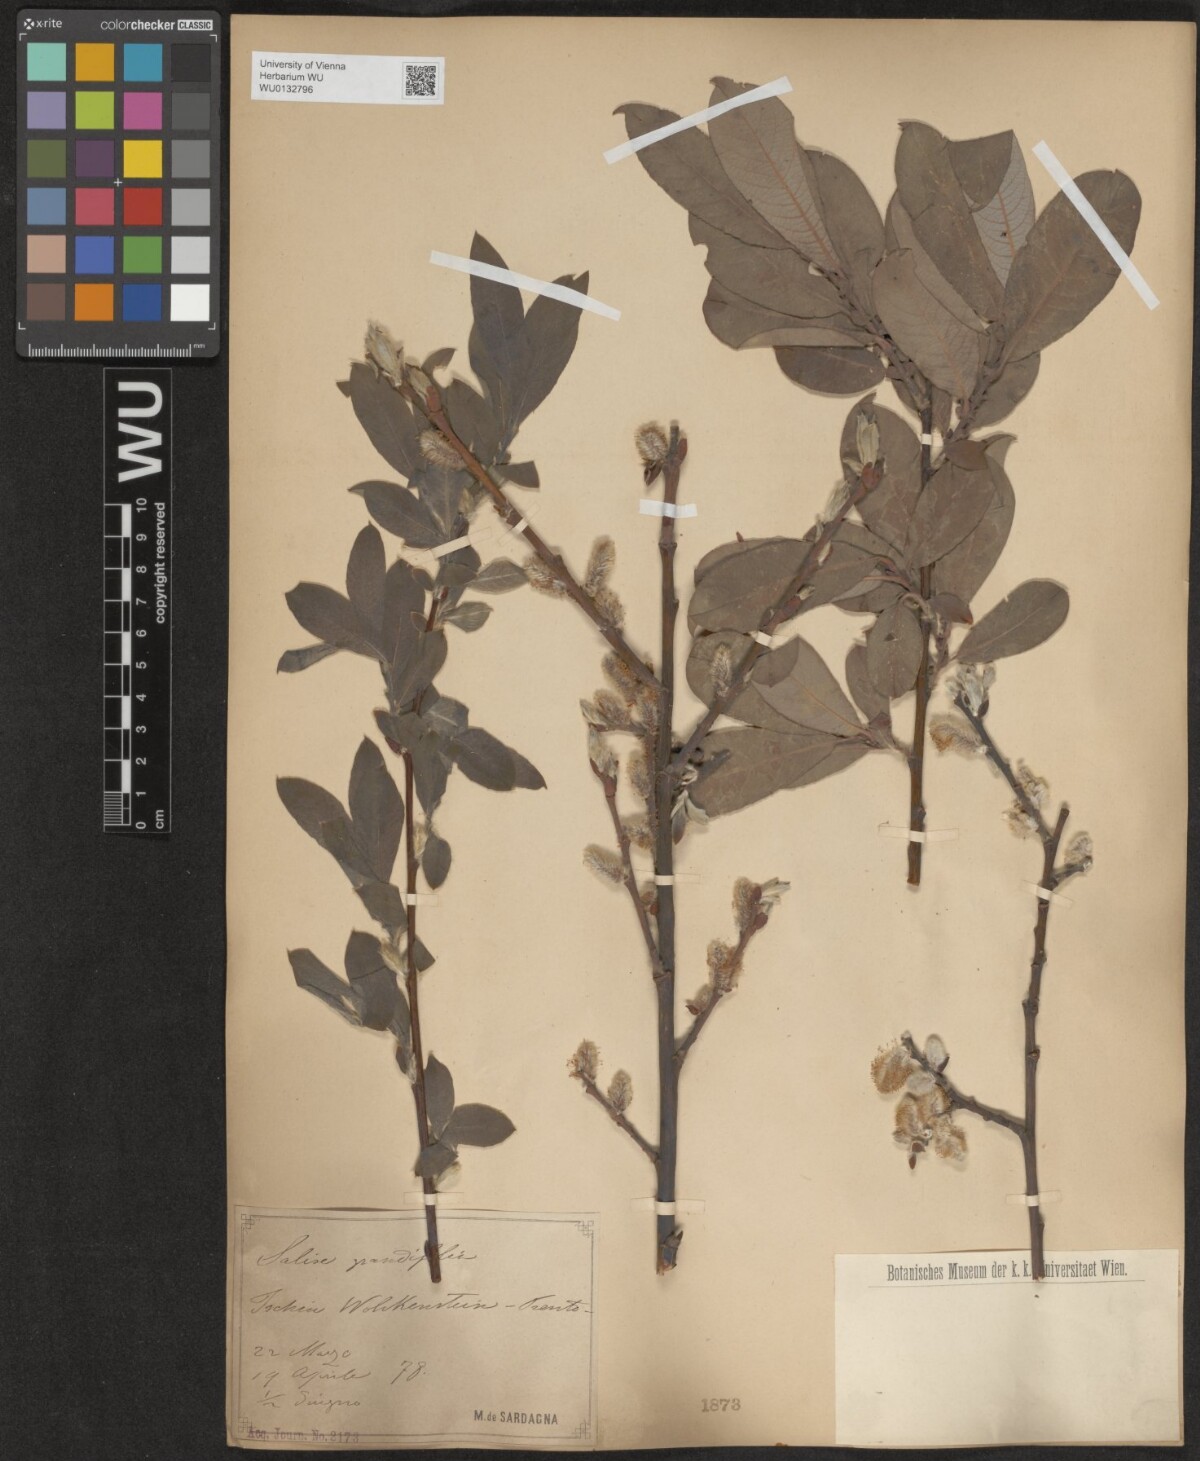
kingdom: Plantae
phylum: Tracheophyta
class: Magnoliopsida
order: Malpighiales
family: Salicaceae
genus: Salix
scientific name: Salix appendiculata
